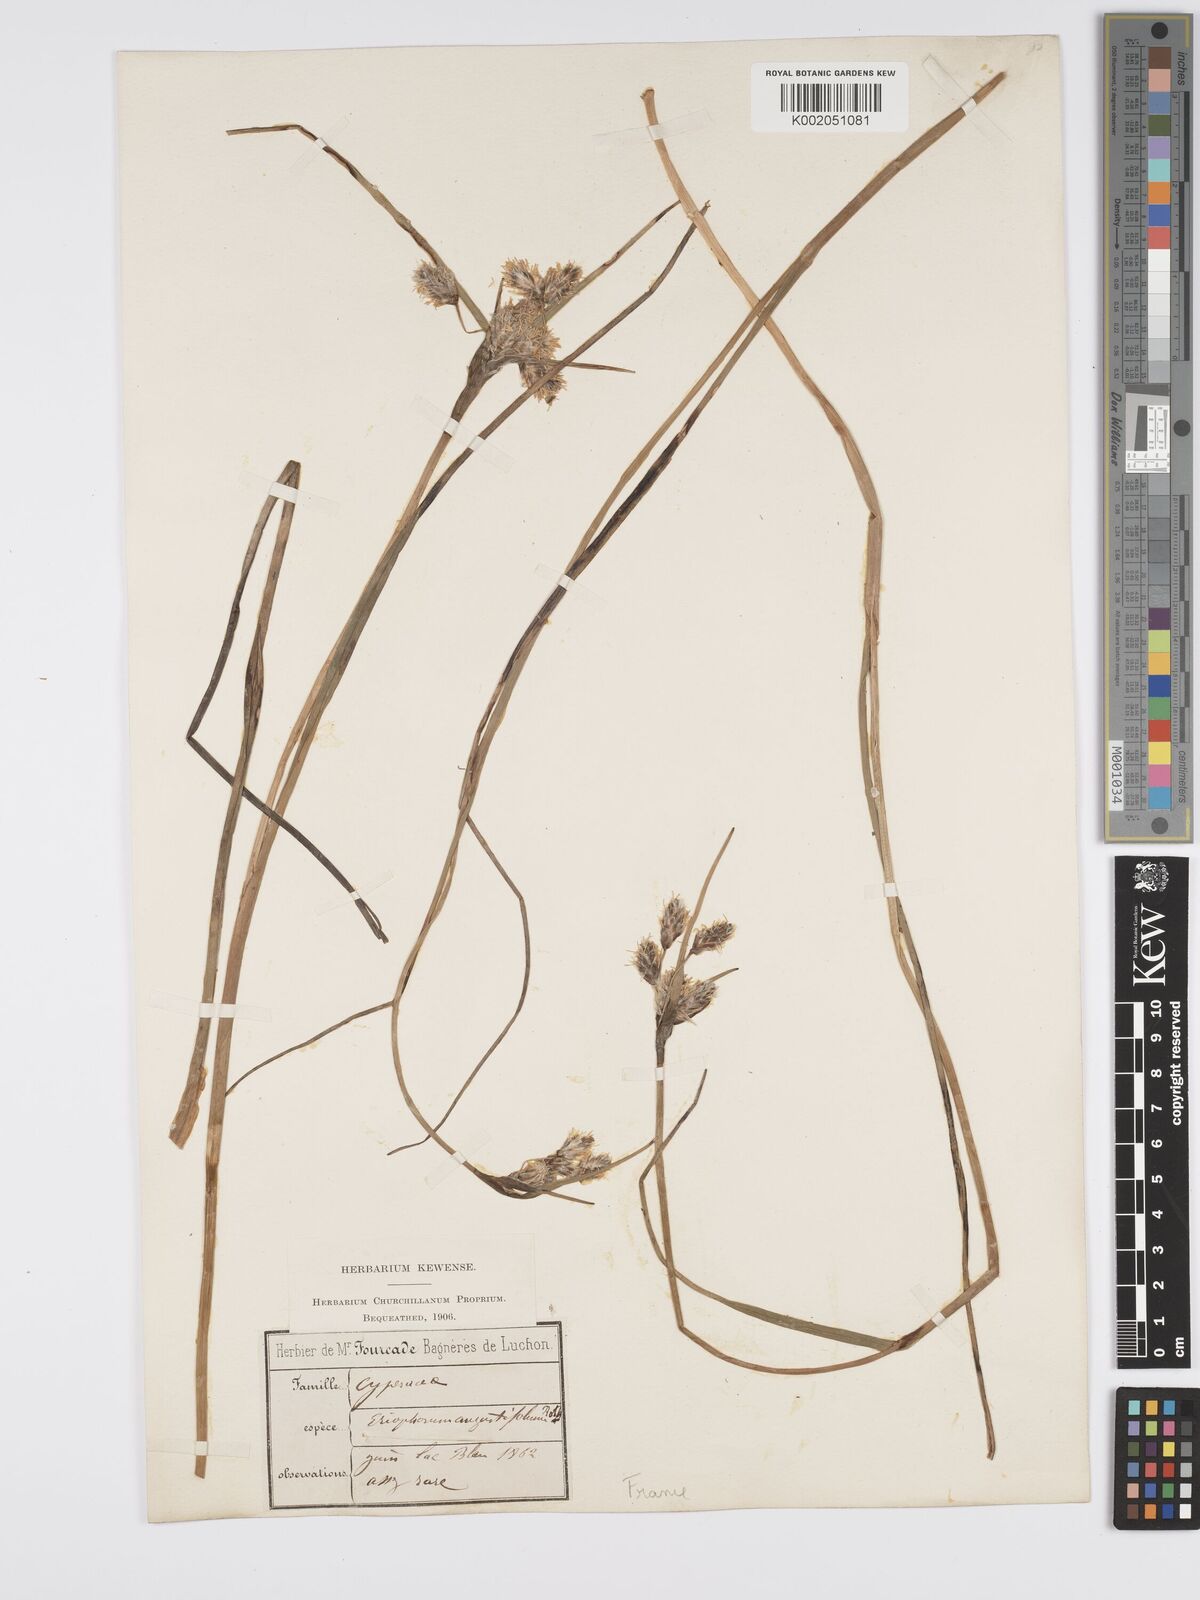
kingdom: Plantae
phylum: Tracheophyta
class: Liliopsida
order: Poales
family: Cyperaceae
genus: Eriophorum
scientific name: Eriophorum angustifolium
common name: Common cottongrass
